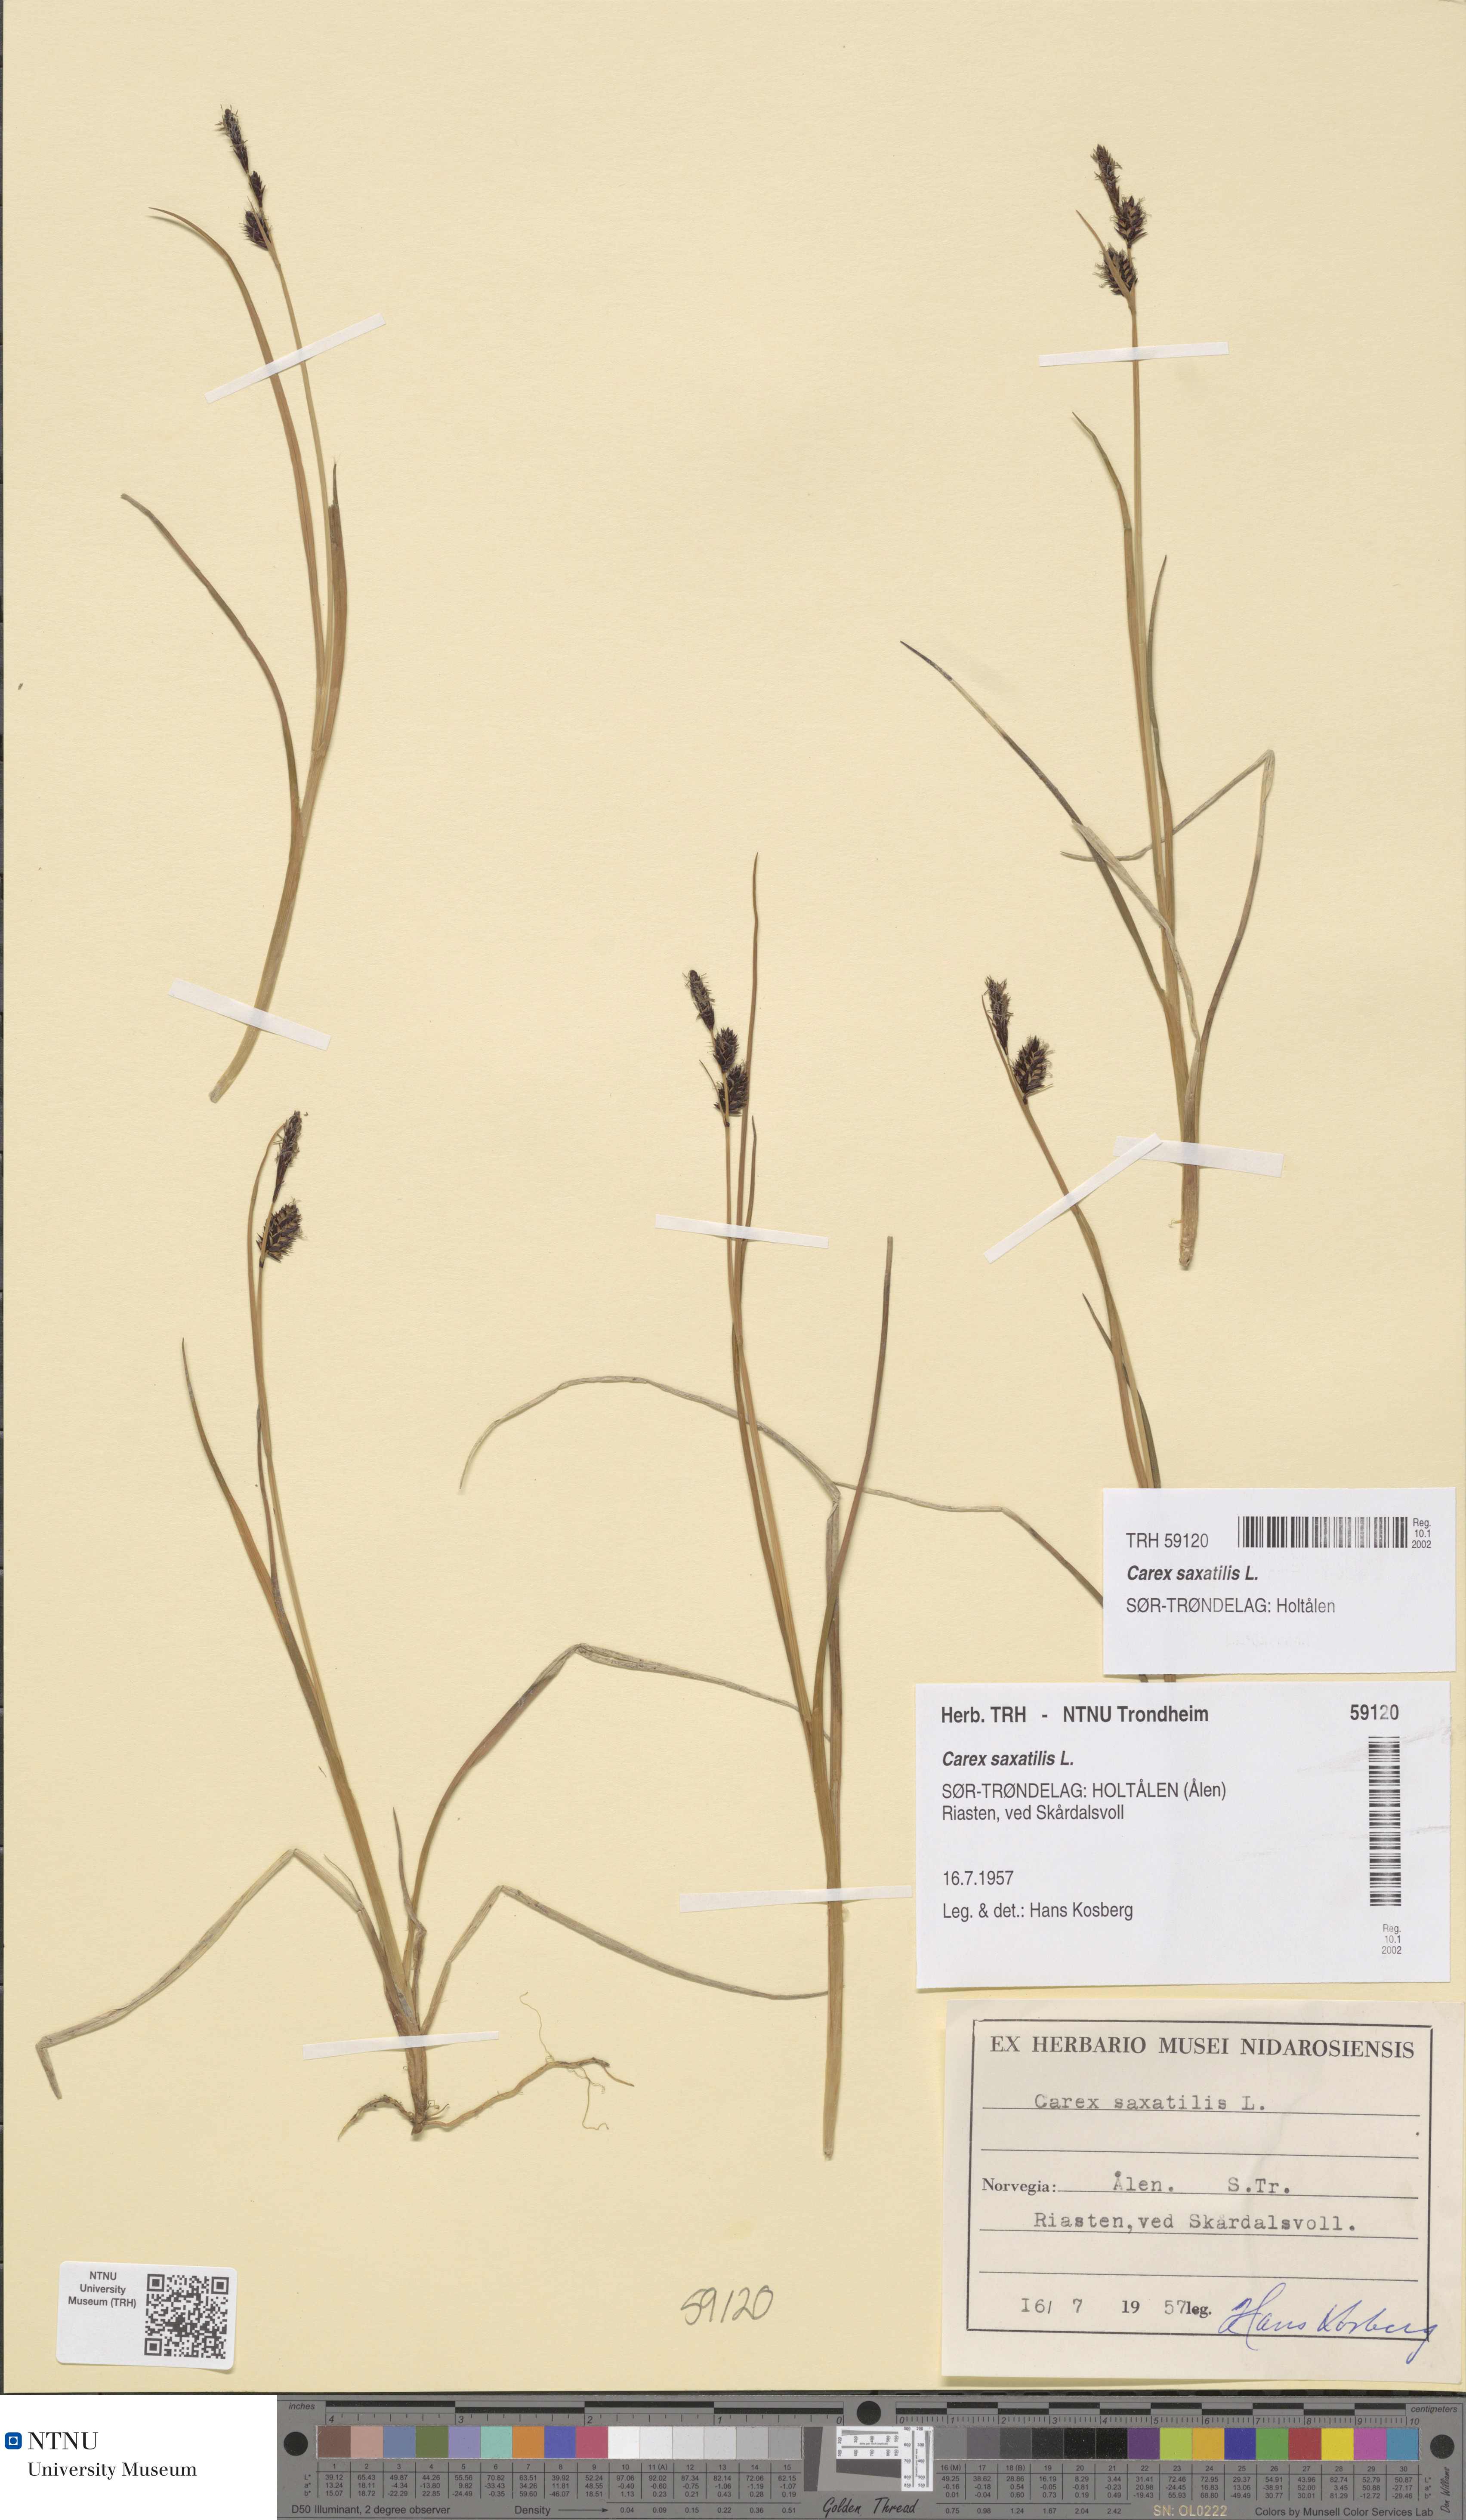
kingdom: Plantae
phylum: Tracheophyta
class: Liliopsida
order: Poales
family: Cyperaceae
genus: Carex
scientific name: Carex saxatilis
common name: Russet sedge
